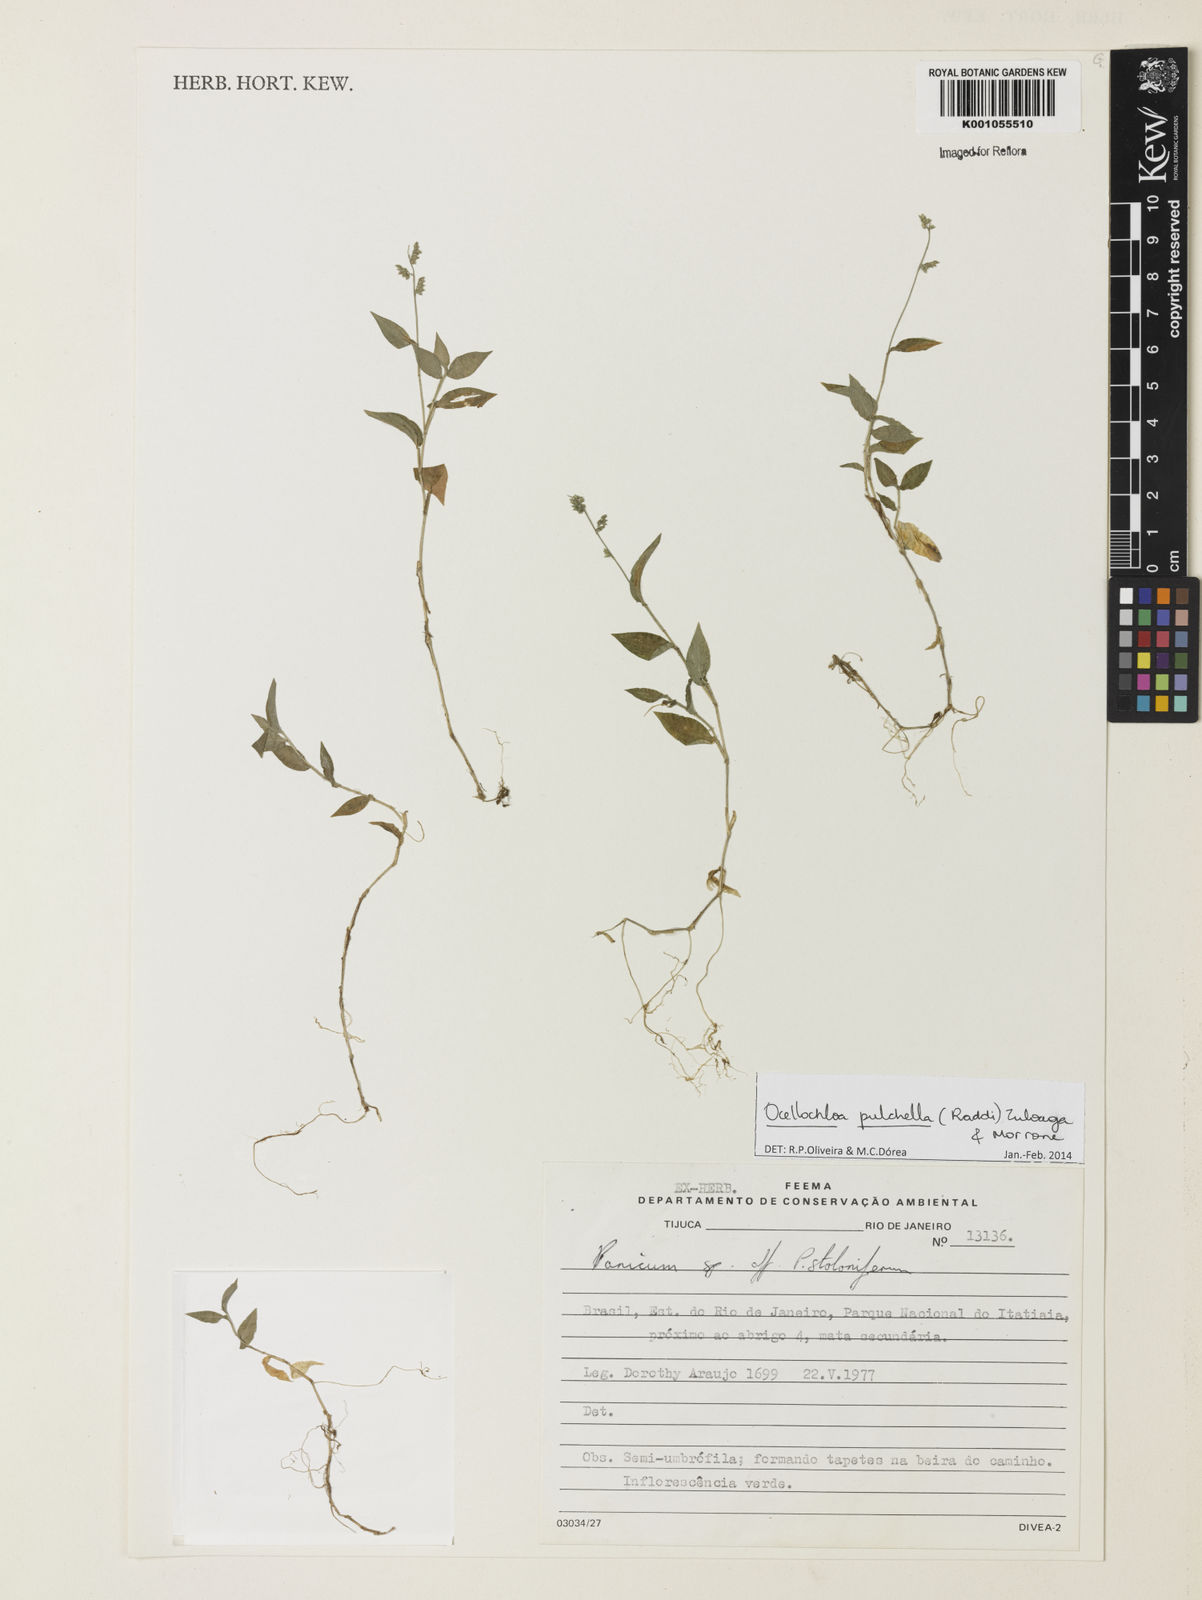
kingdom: Plantae
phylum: Tracheophyta
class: Liliopsida
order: Poales
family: Poaceae
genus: Ocellochloa
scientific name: Ocellochloa pulchella
